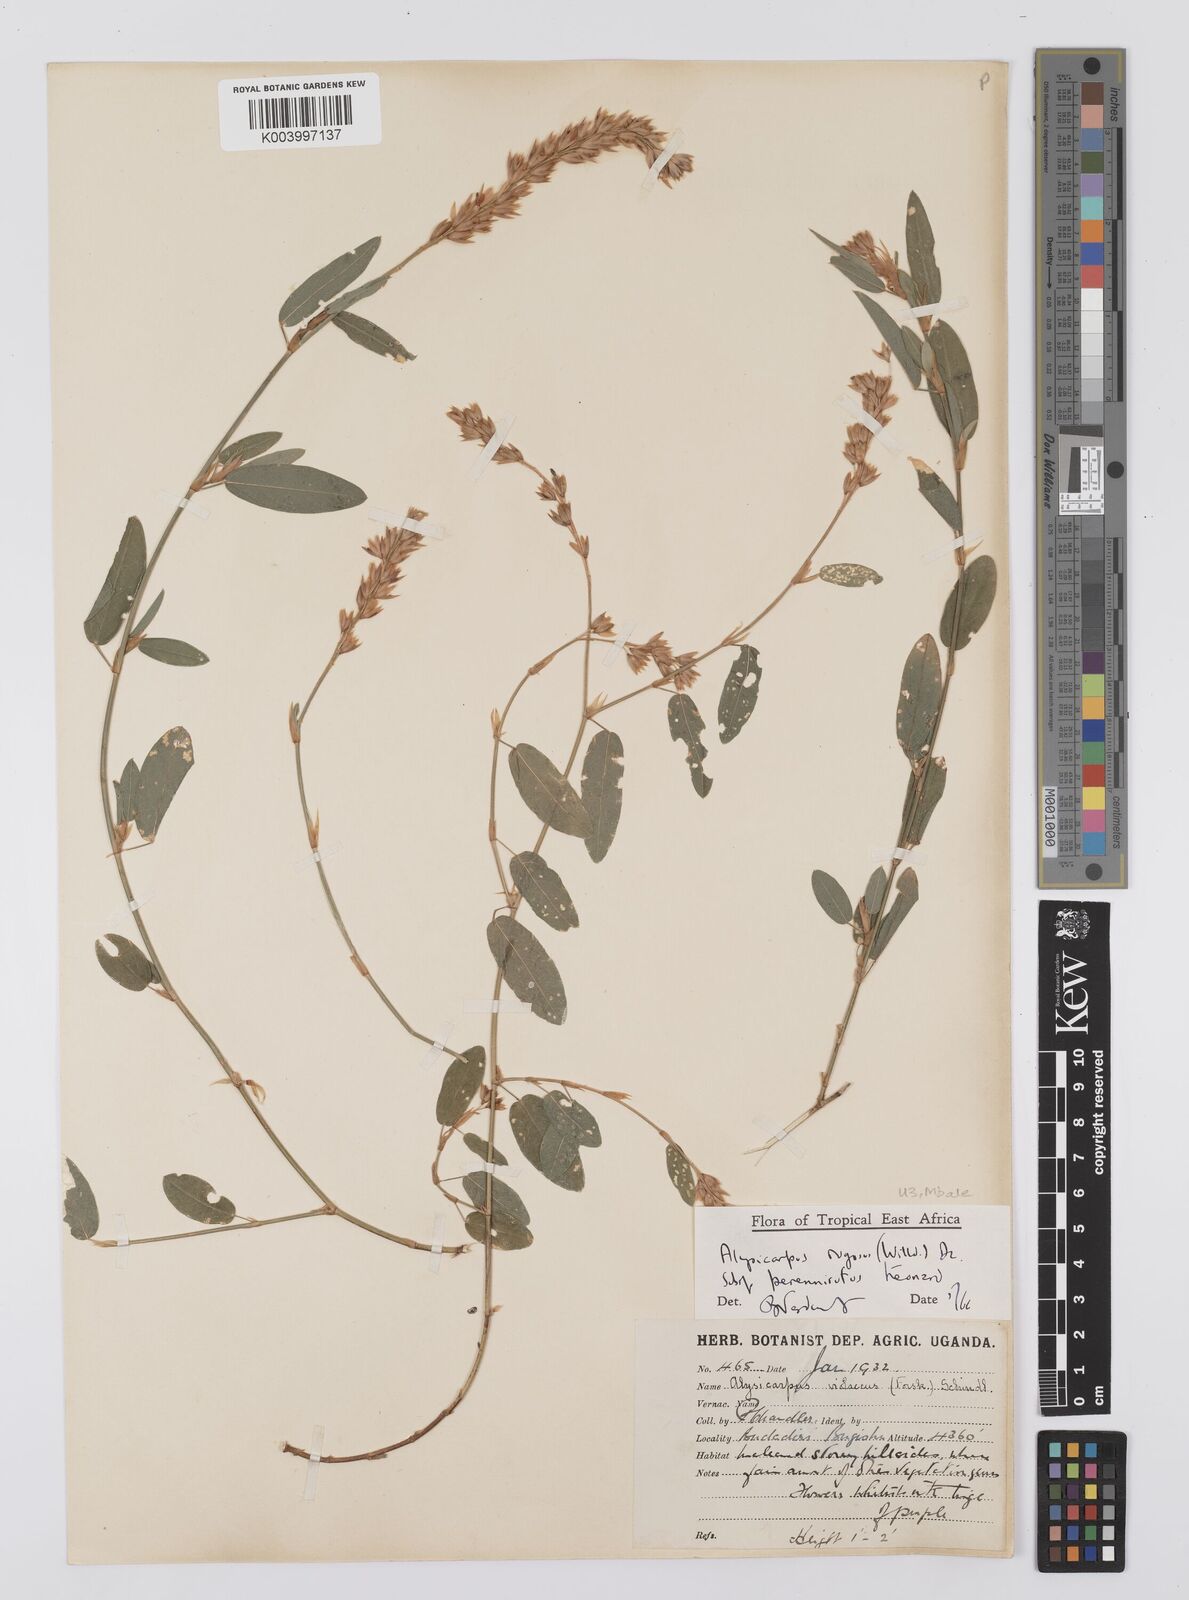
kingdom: Plantae
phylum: Tracheophyta
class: Magnoliopsida
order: Fabales
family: Fabaceae
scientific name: Fabaceae
